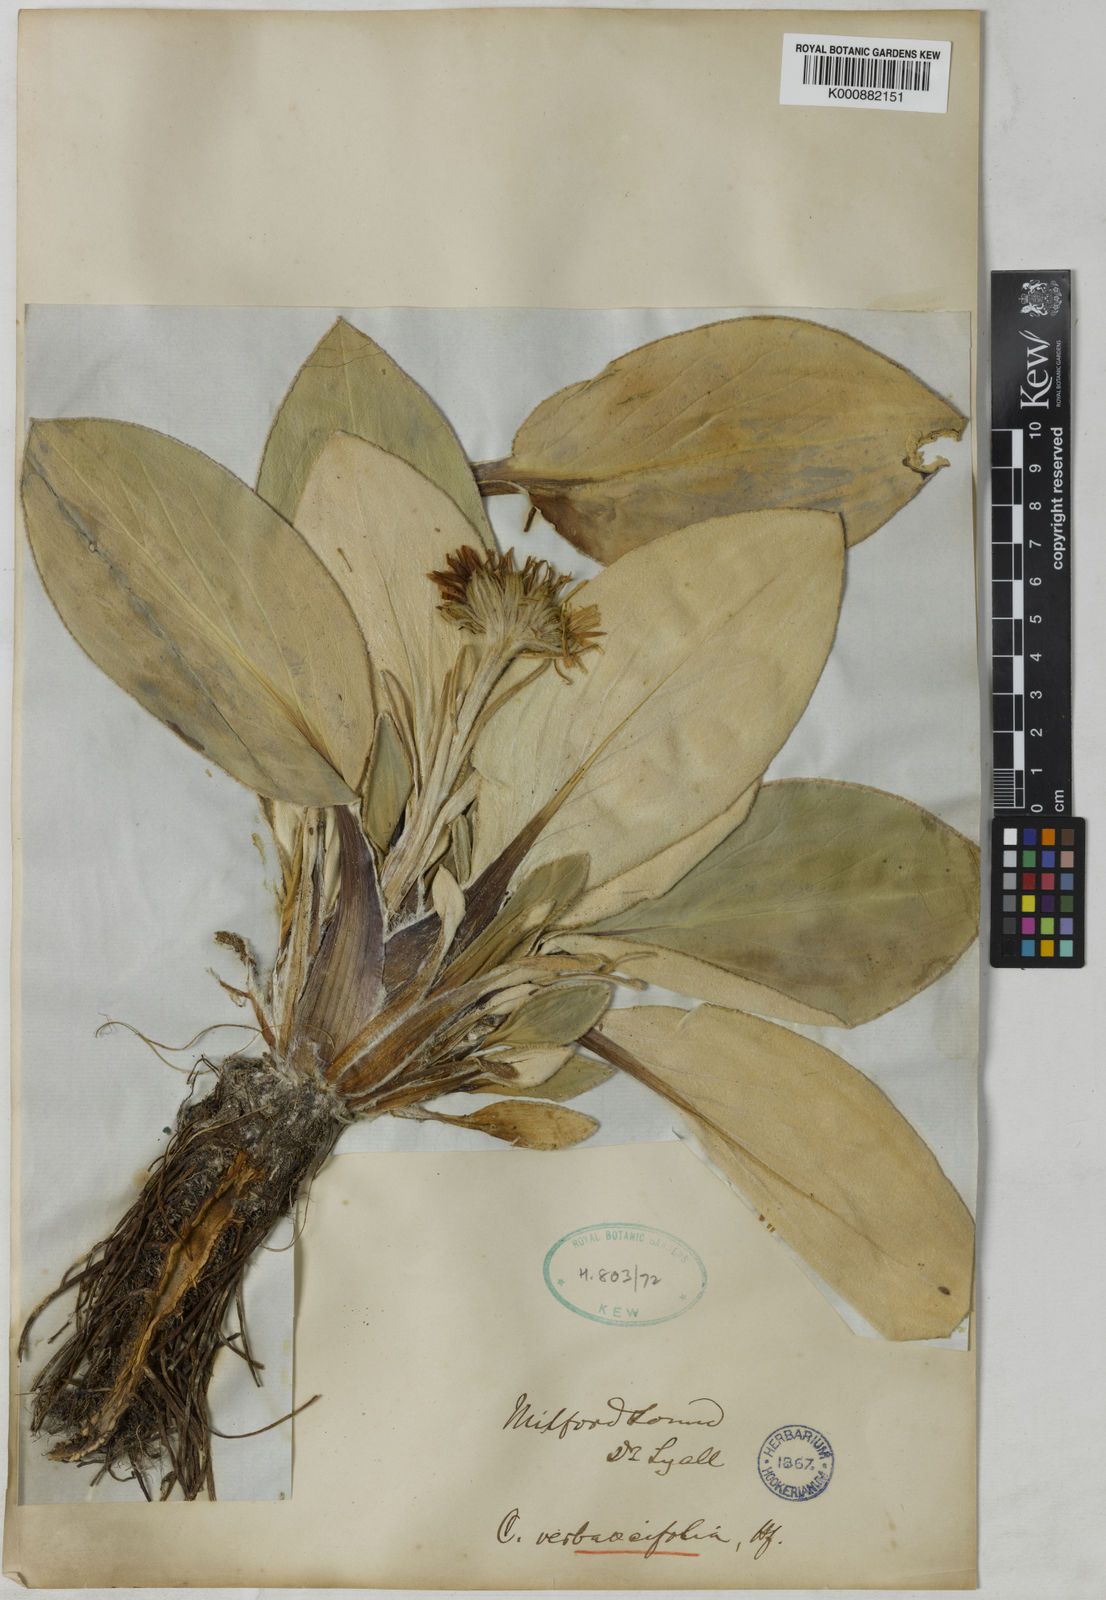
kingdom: Plantae
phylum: Tracheophyta
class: Magnoliopsida
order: Asterales
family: Asteraceae
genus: Celmisia
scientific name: Celmisia verbascifolia
